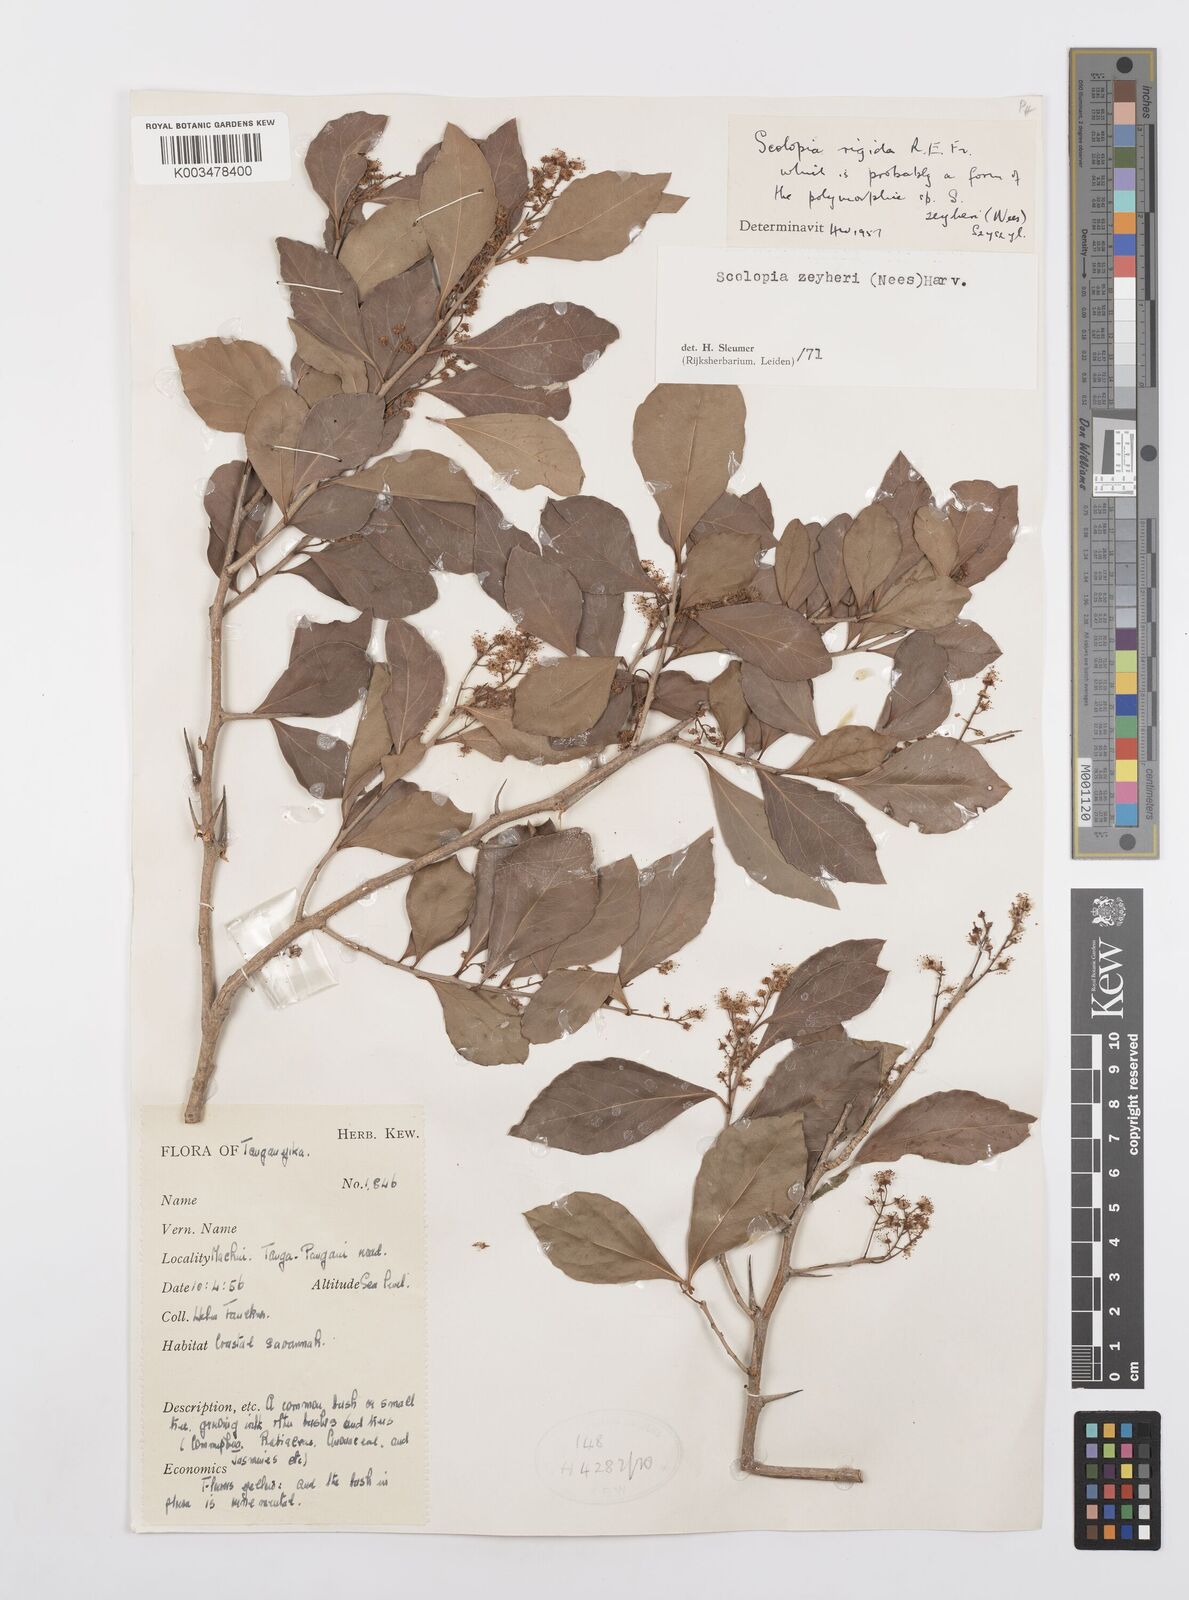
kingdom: Plantae
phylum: Tracheophyta
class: Magnoliopsida
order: Malpighiales
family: Salicaceae
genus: Scolopia
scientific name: Scolopia zeyheri
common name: Thorn pear
